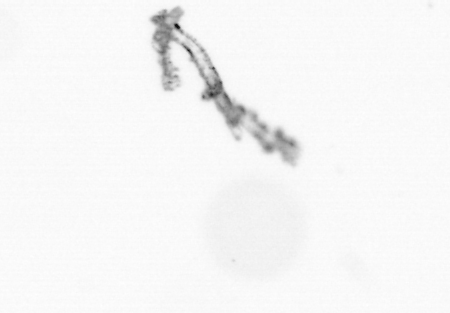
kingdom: Chromista
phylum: Ochrophyta
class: Bacillariophyceae
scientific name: Bacillariophyceae
